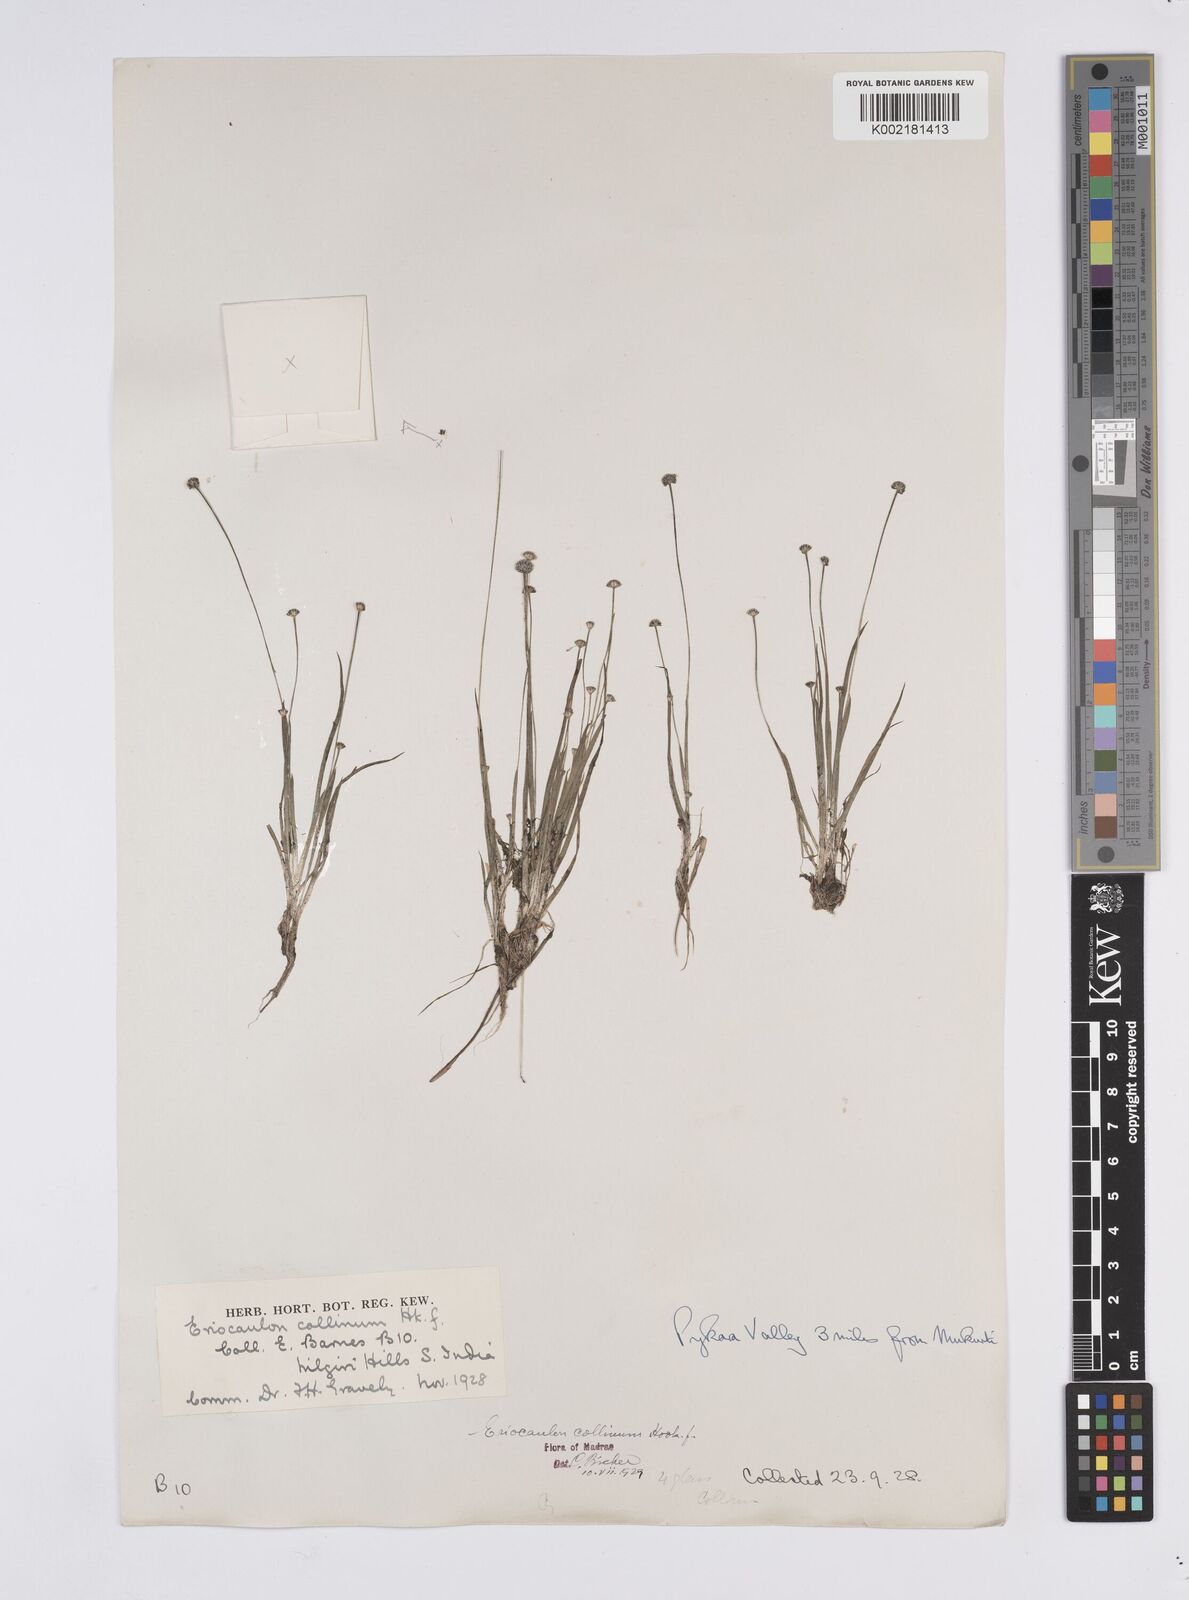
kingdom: Plantae
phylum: Tracheophyta
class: Liliopsida
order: Poales
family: Eriocaulaceae
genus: Eriocaulon
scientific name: Eriocaulon odoratum
